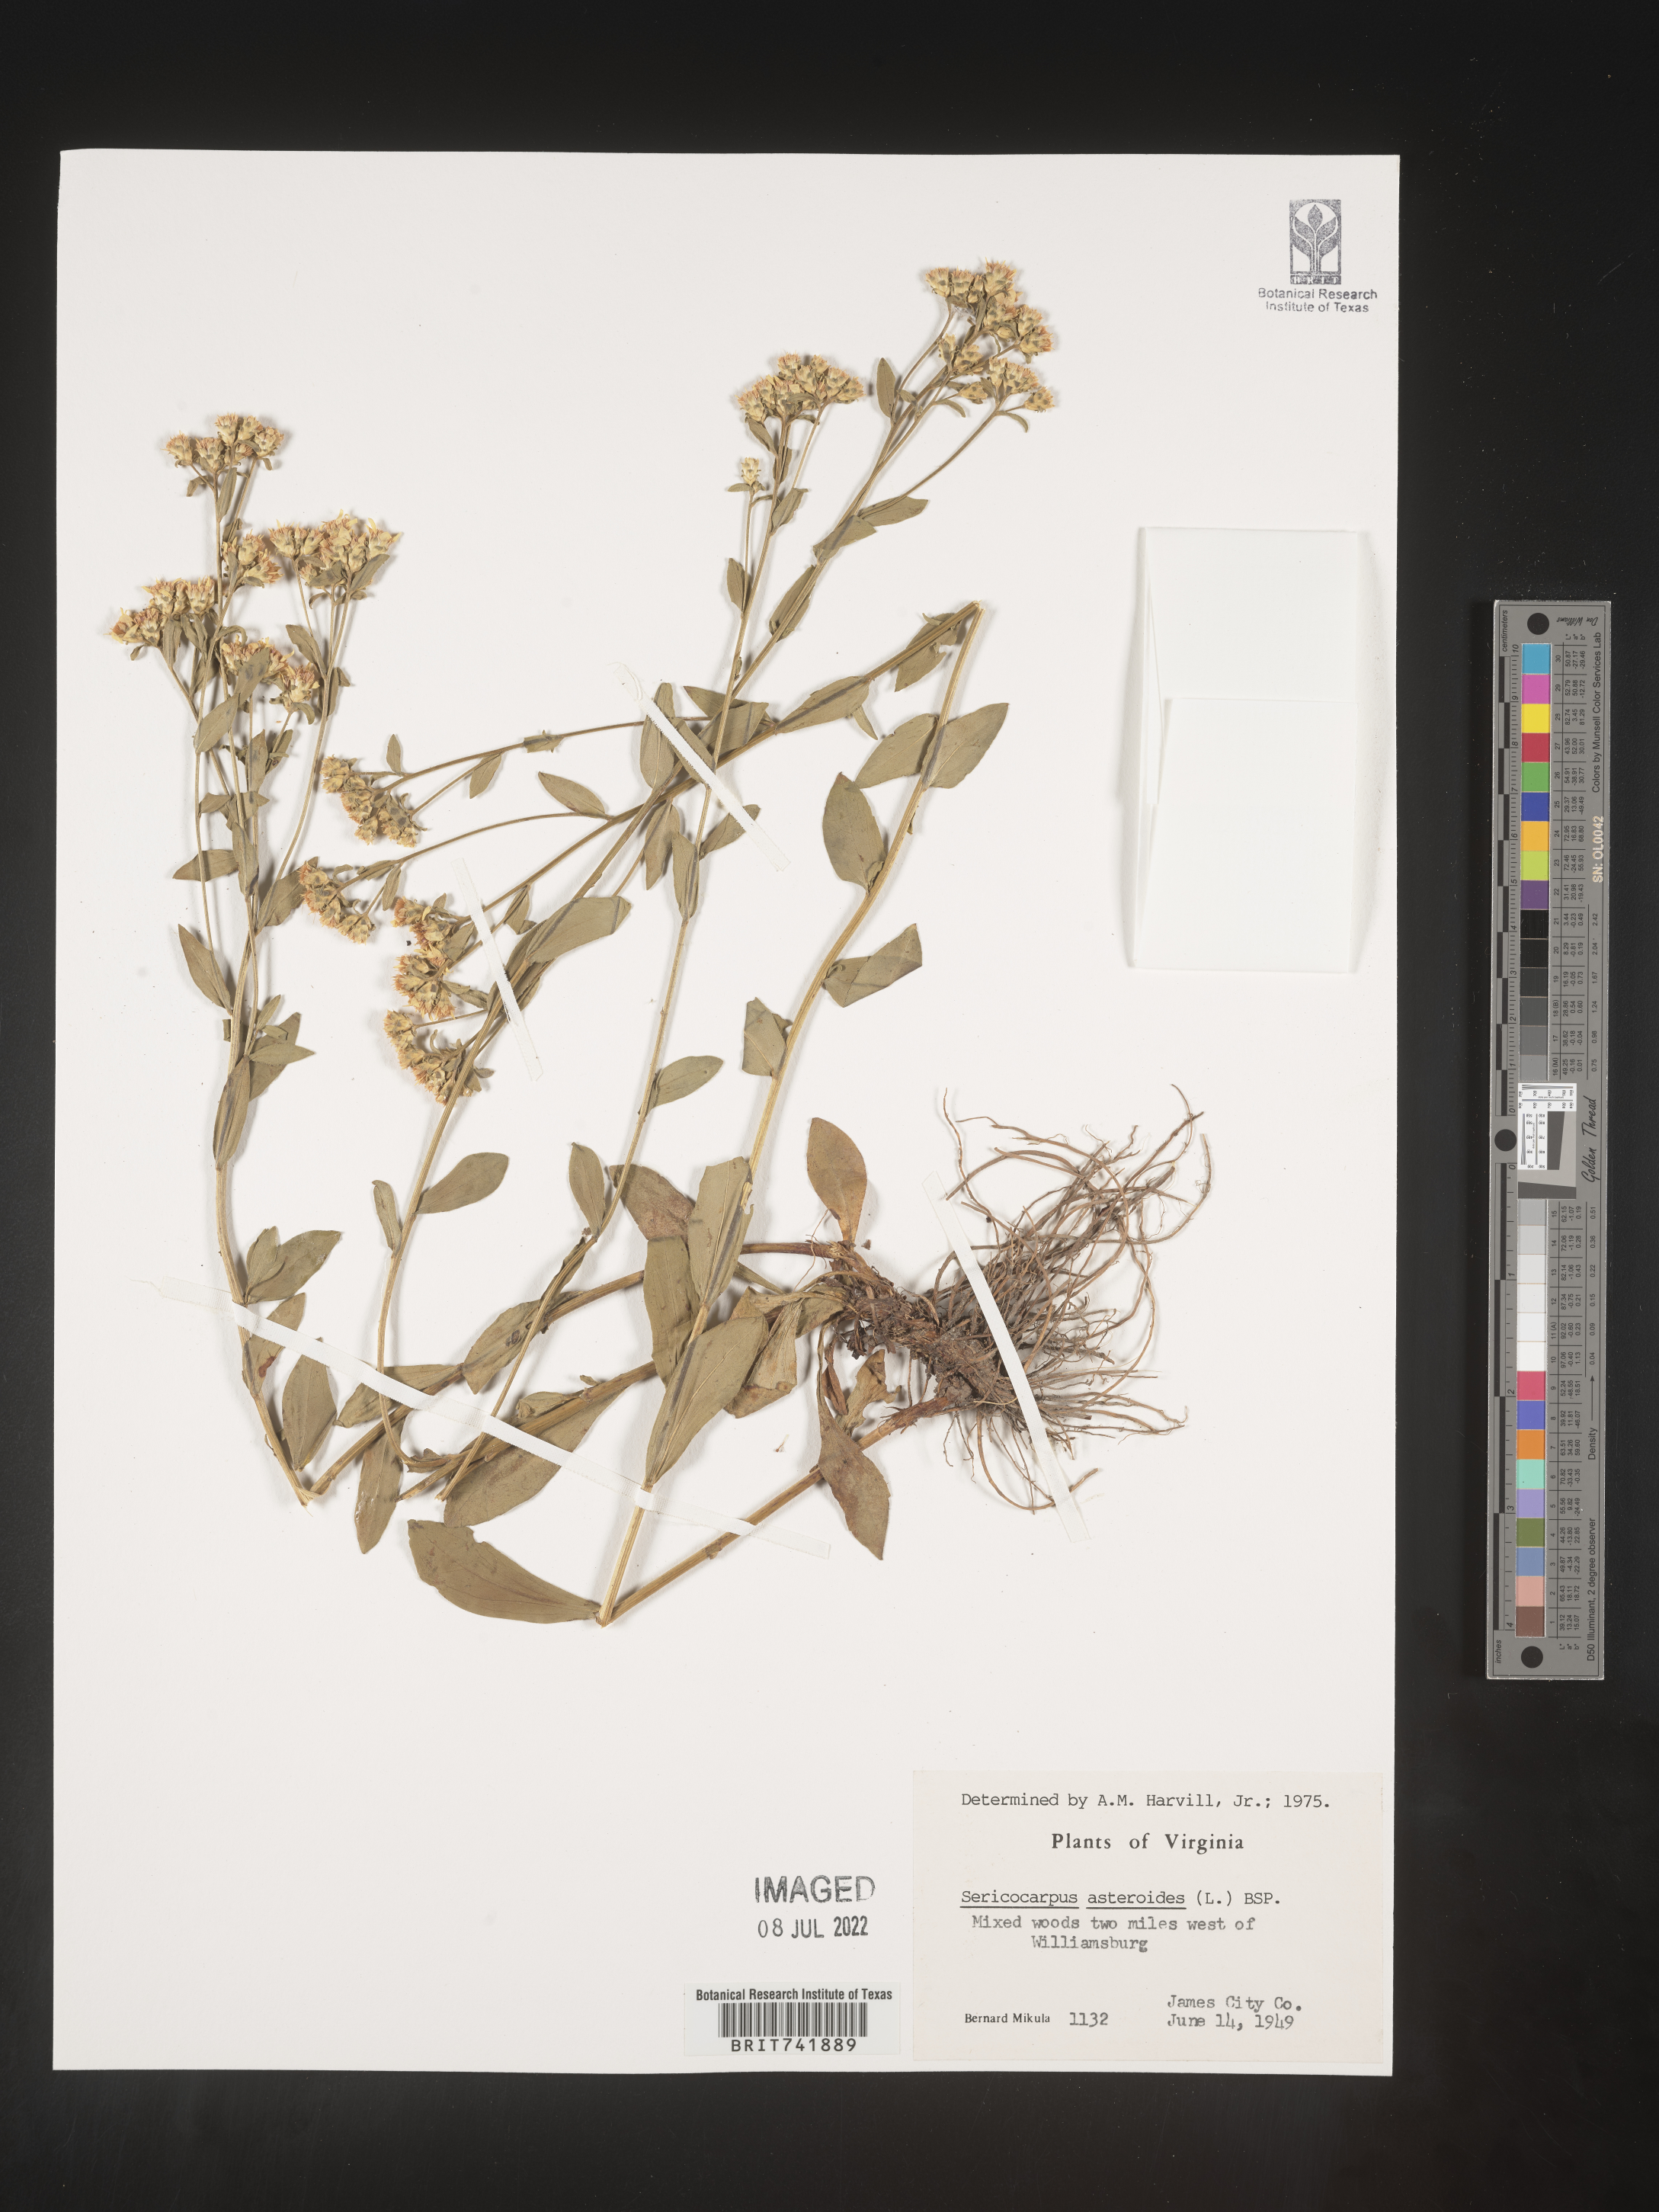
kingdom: Plantae
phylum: Tracheophyta
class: Magnoliopsida
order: Asterales
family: Asteraceae
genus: Sericocarpus
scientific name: Sericocarpus asteroides
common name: Toothed white-top aster
